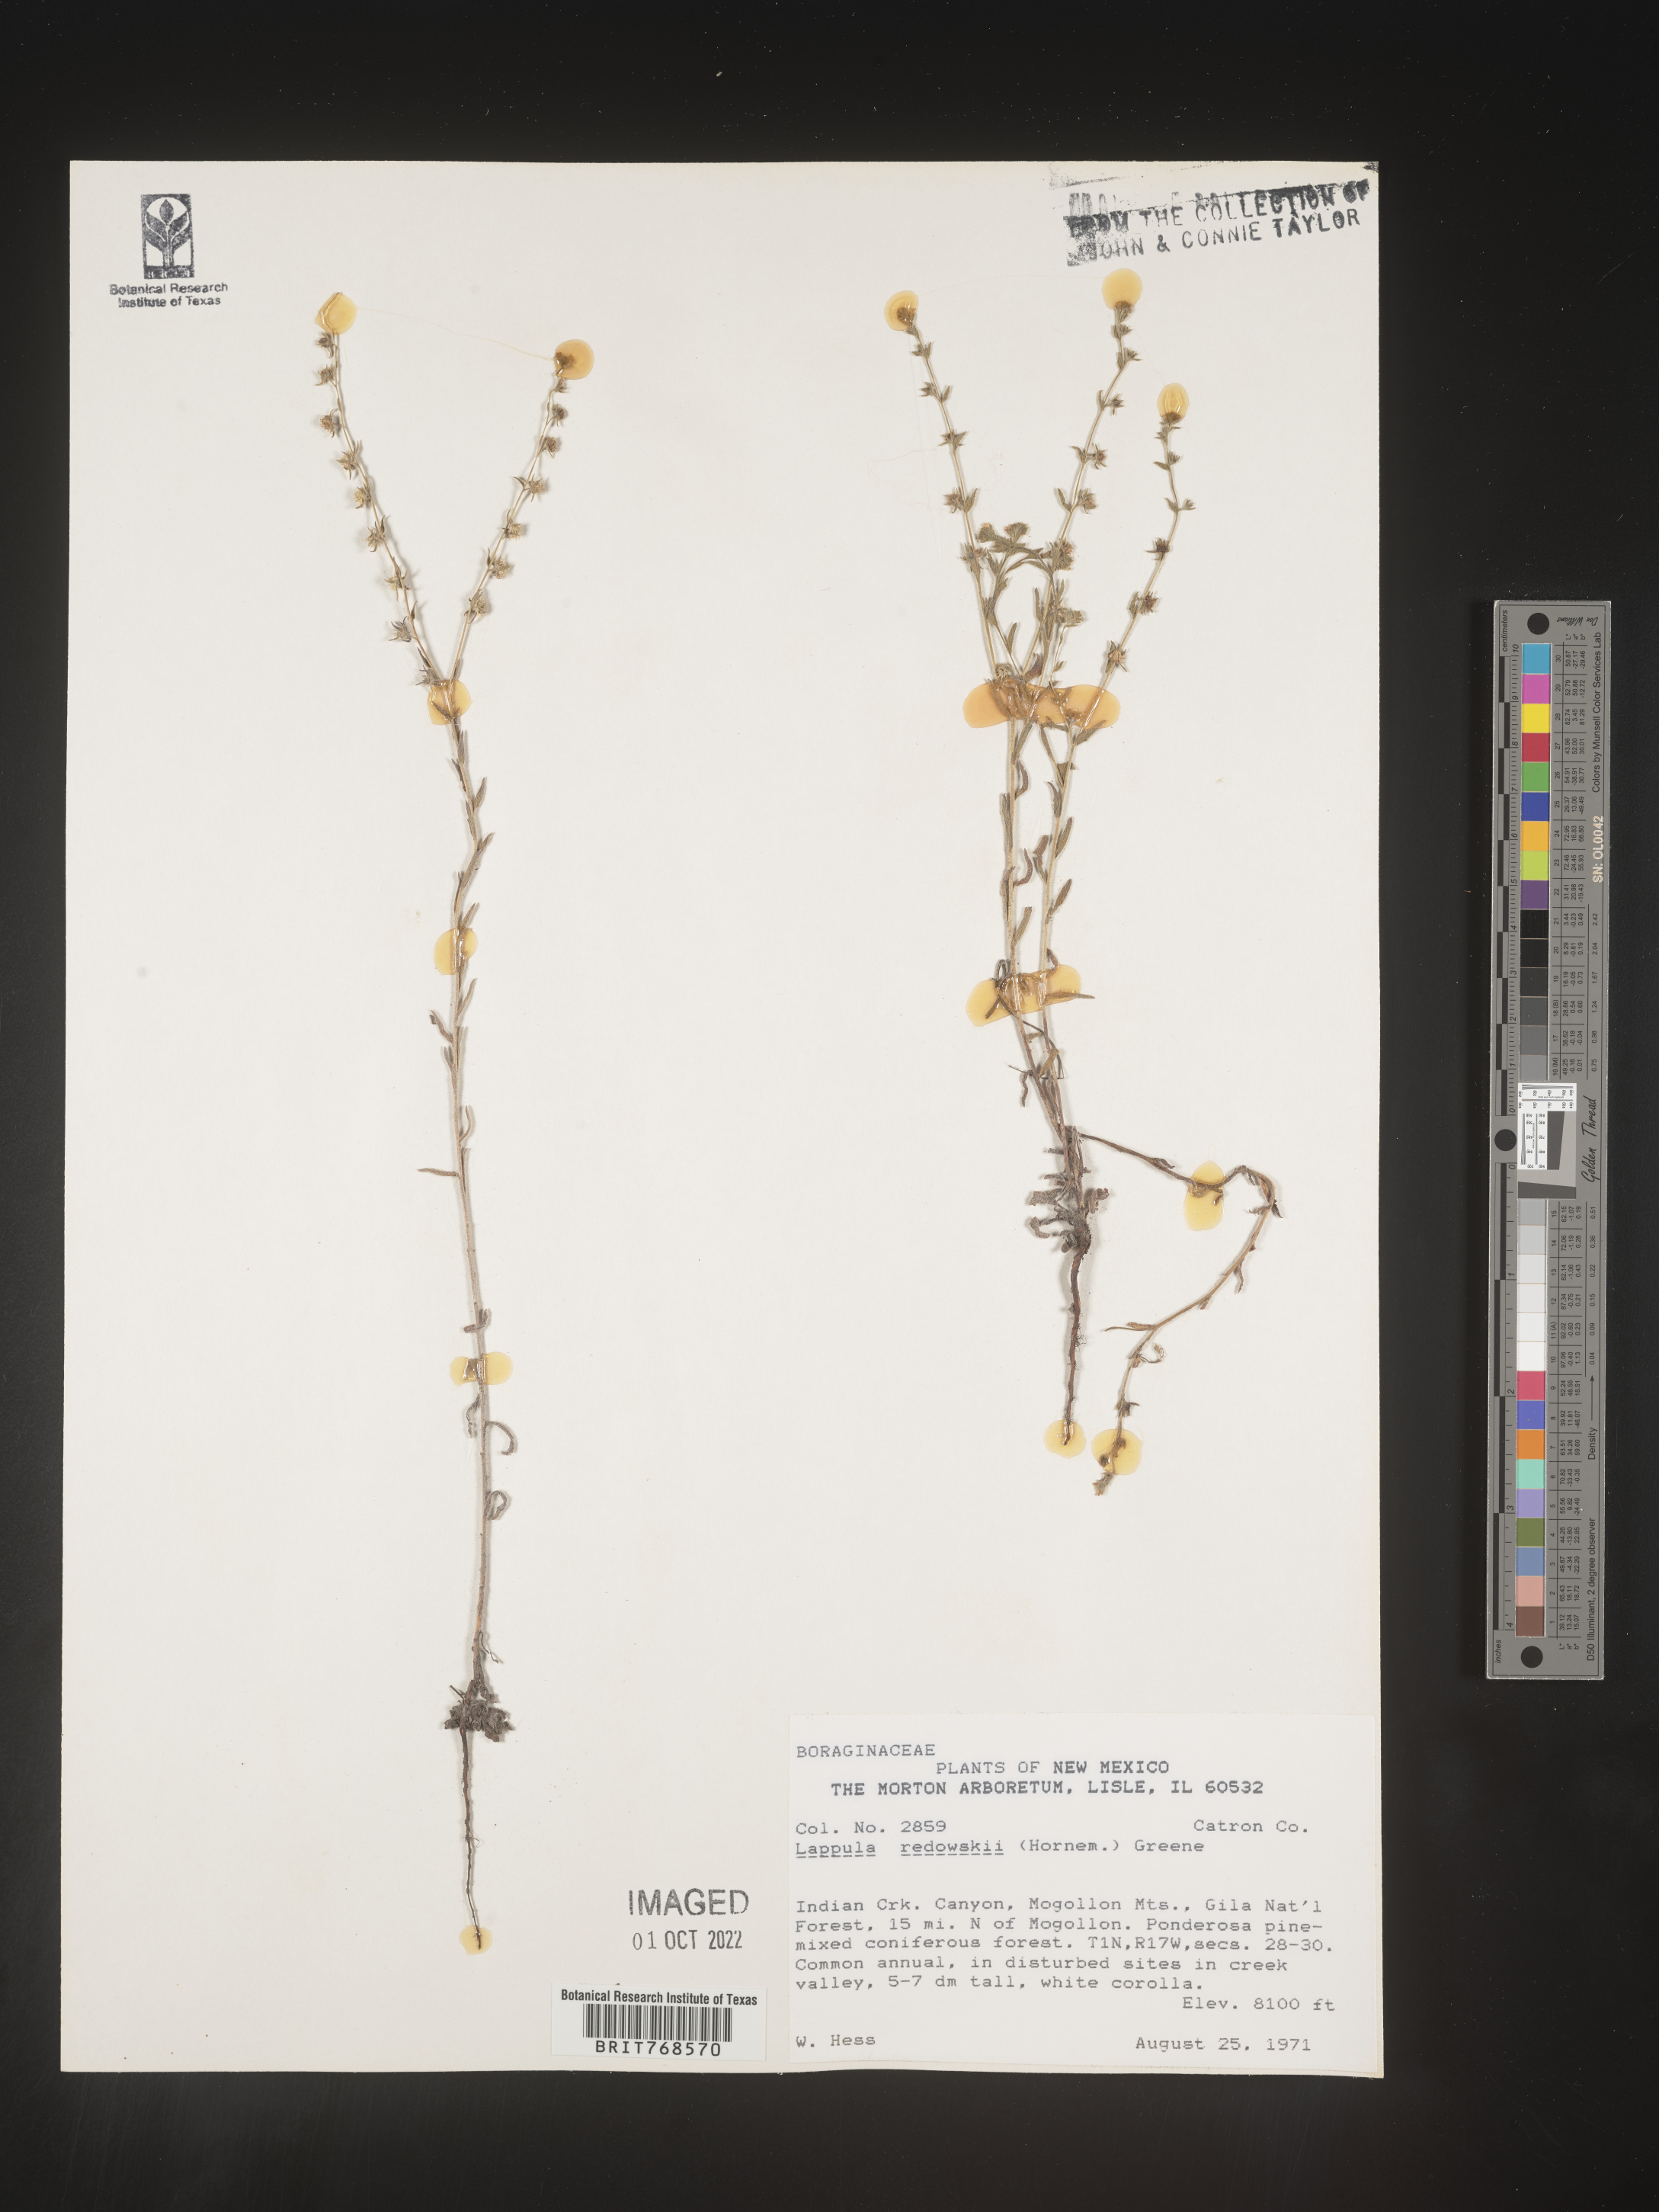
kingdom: Plantae
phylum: Tracheophyta
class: Magnoliopsida
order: Boraginales
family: Boraginaceae
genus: Lappula
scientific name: Lappula redowskii
